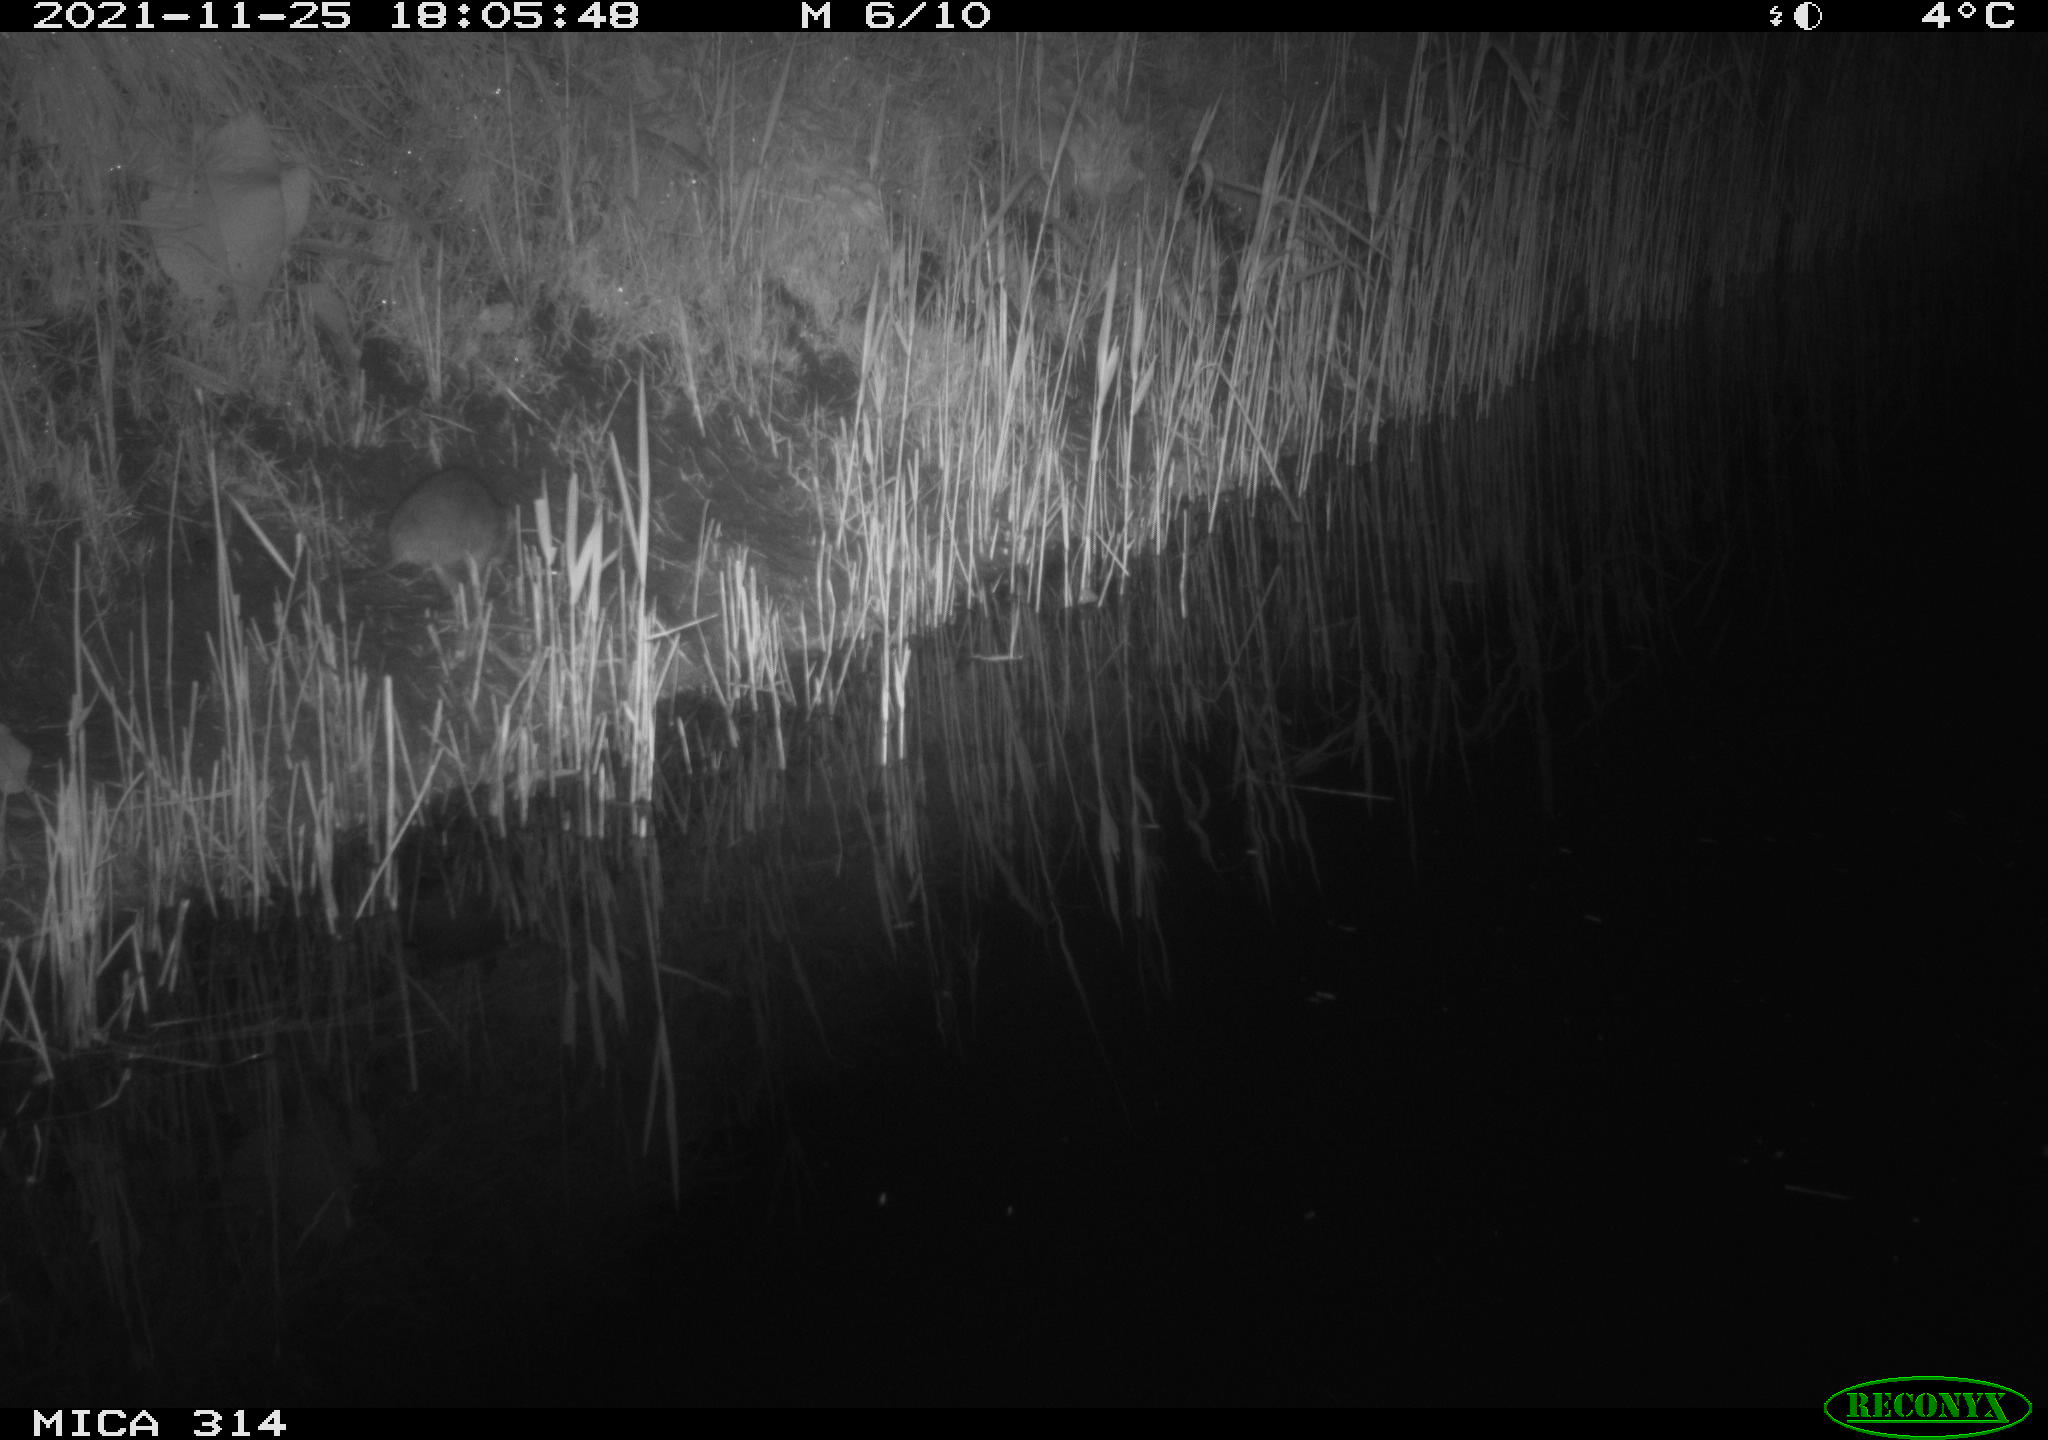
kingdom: Animalia
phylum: Chordata
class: Mammalia
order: Rodentia
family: Muridae
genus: Rattus
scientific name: Rattus norvegicus
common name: Brown rat
